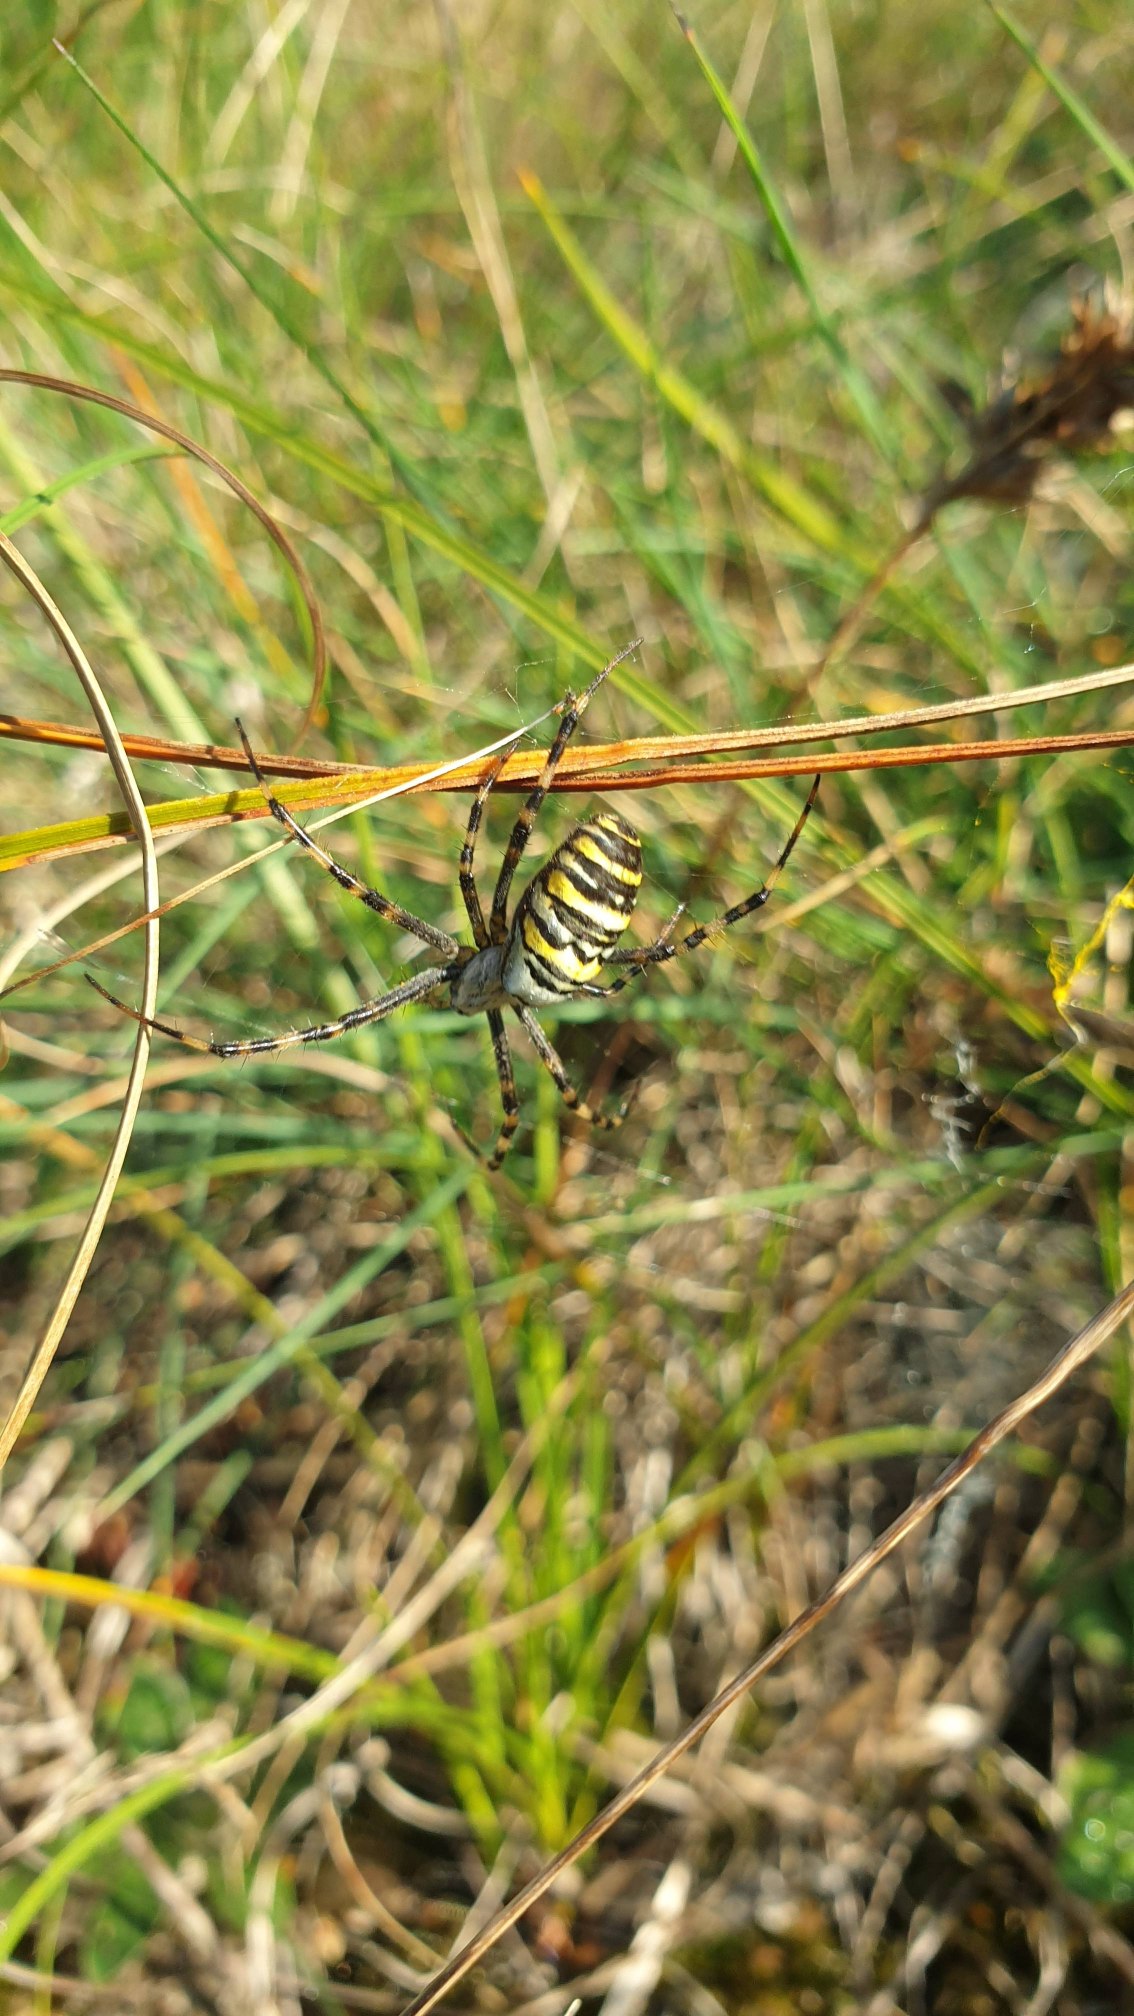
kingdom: Animalia
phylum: Arthropoda
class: Arachnida
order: Araneae
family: Araneidae
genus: Argiope
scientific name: Argiope bruennichi
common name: Hvepseedderkop
